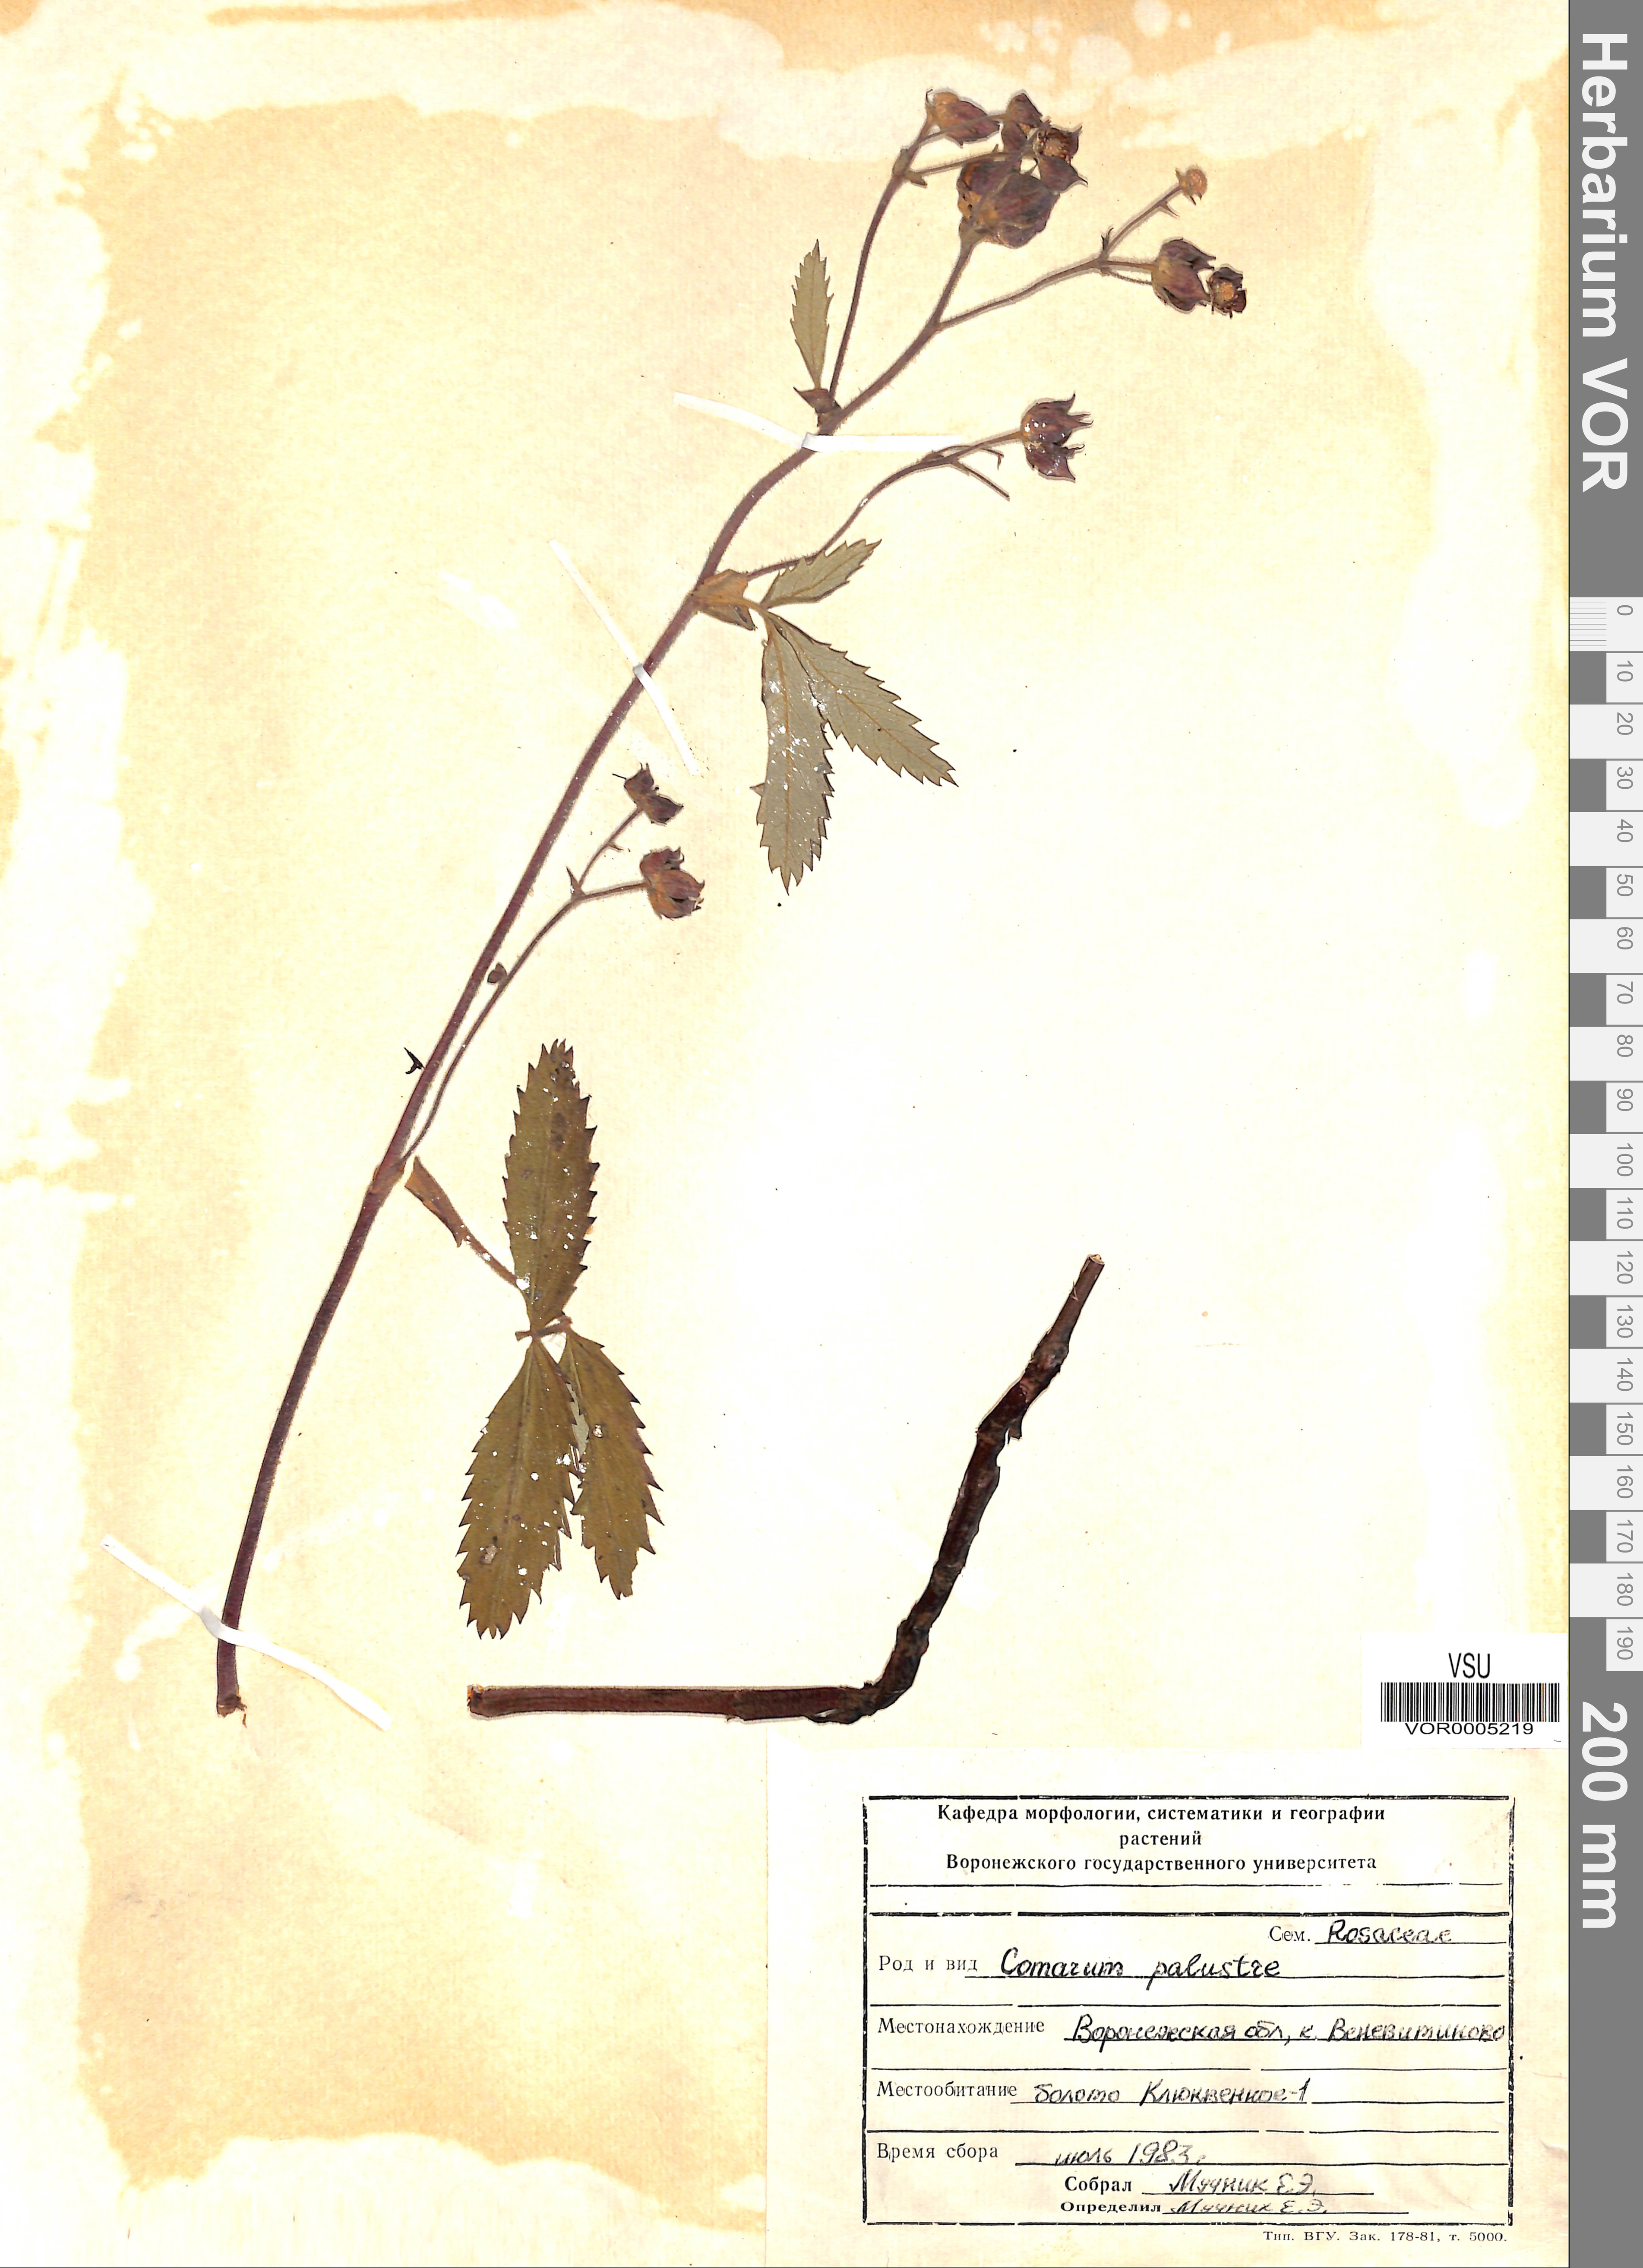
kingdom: Plantae
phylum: Tracheophyta
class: Magnoliopsida
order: Rosales
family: Rosaceae
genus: Comarum
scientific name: Comarum palustre
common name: Marsh cinquefoil
